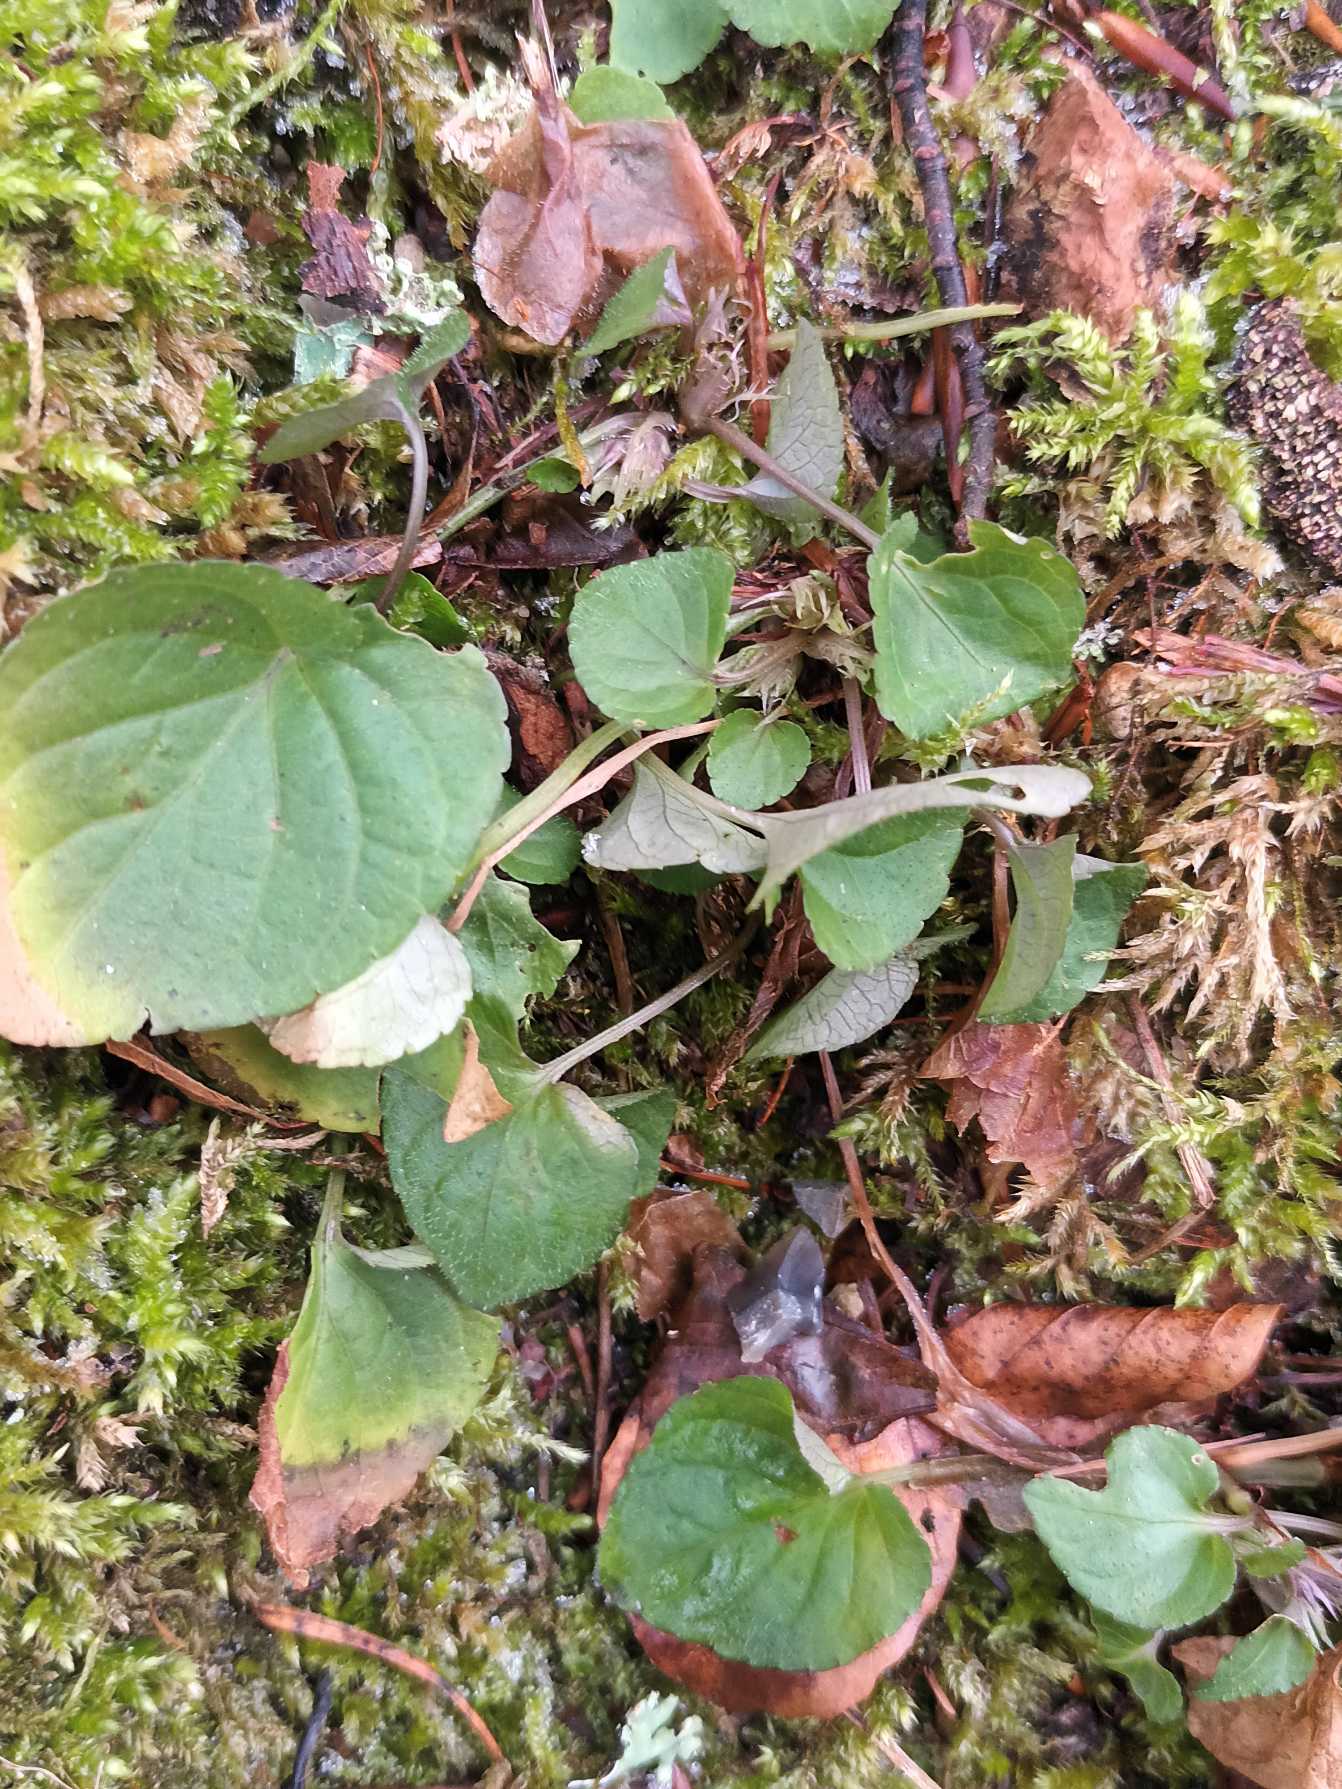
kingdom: Plantae
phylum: Tracheophyta
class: Magnoliopsida
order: Malpighiales
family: Violaceae
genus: Viola
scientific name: Viola reichenbachiana
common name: Skov-viol
